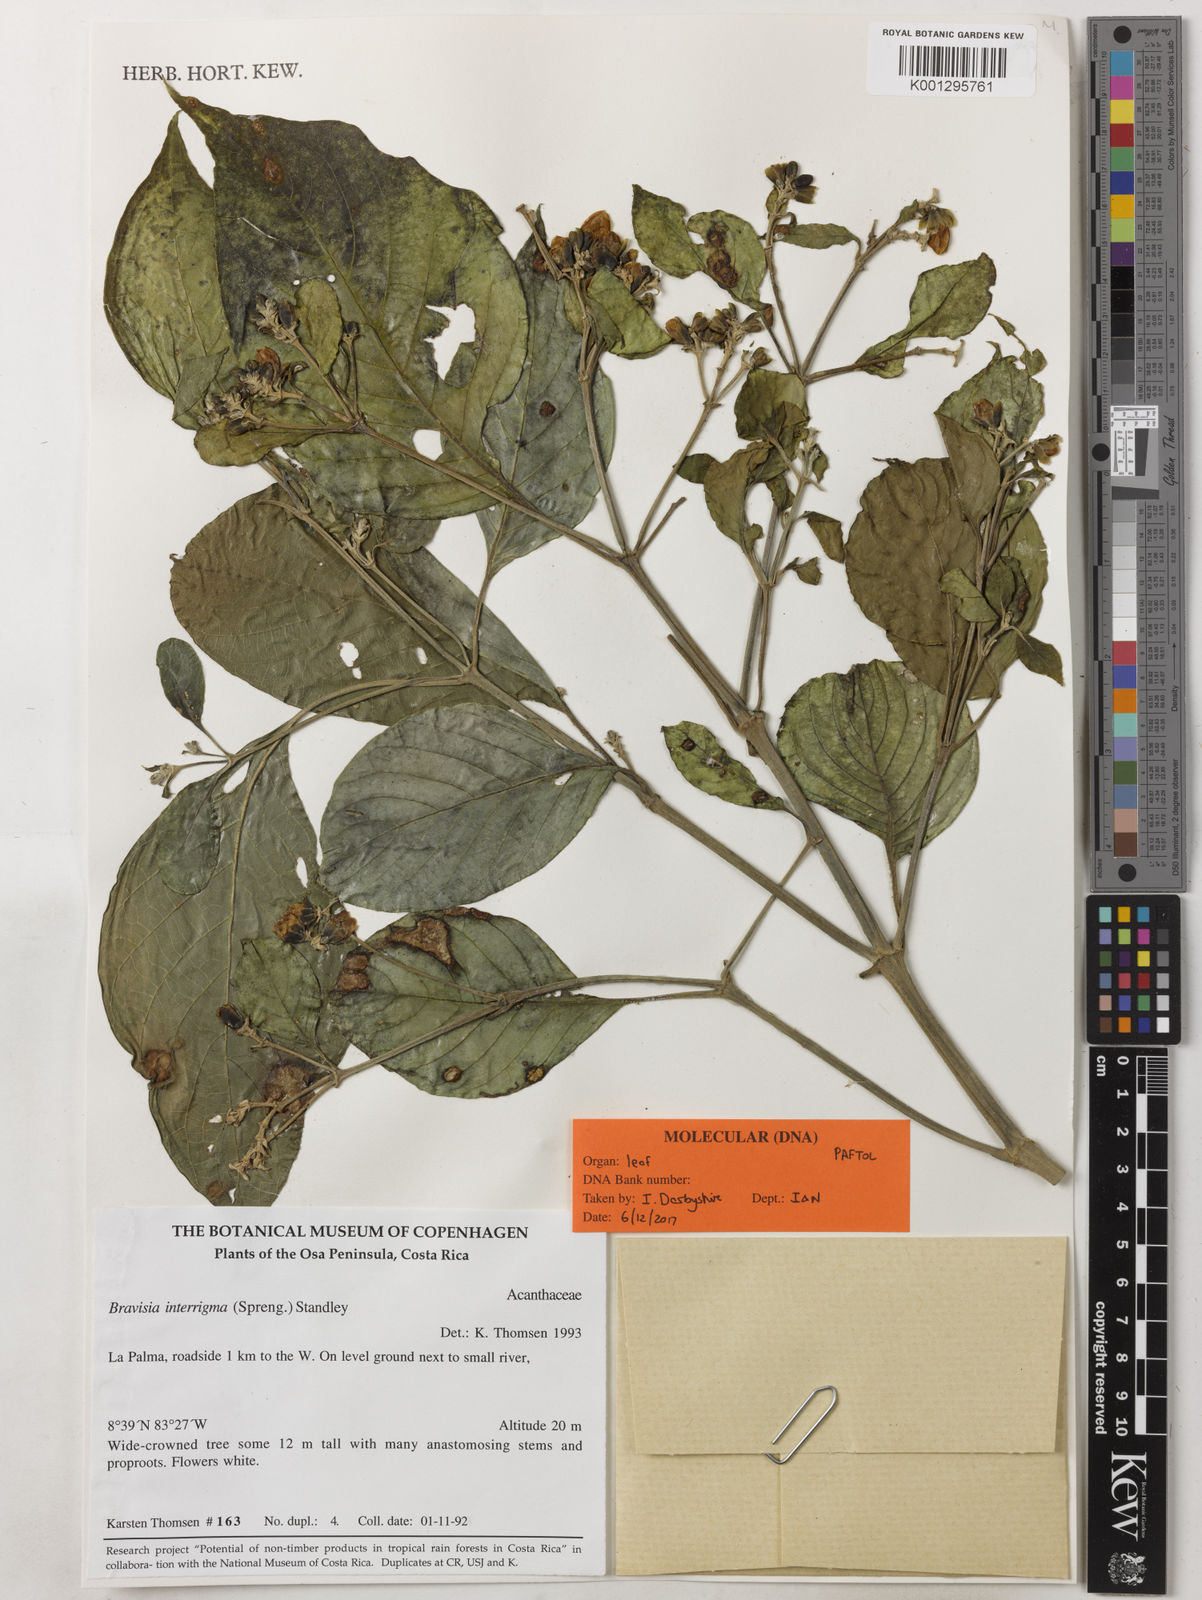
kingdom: Plantae
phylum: Tracheophyta
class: Magnoliopsida
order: Lamiales
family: Acanthaceae
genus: Bravaisia
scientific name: Bravaisia integerrima
